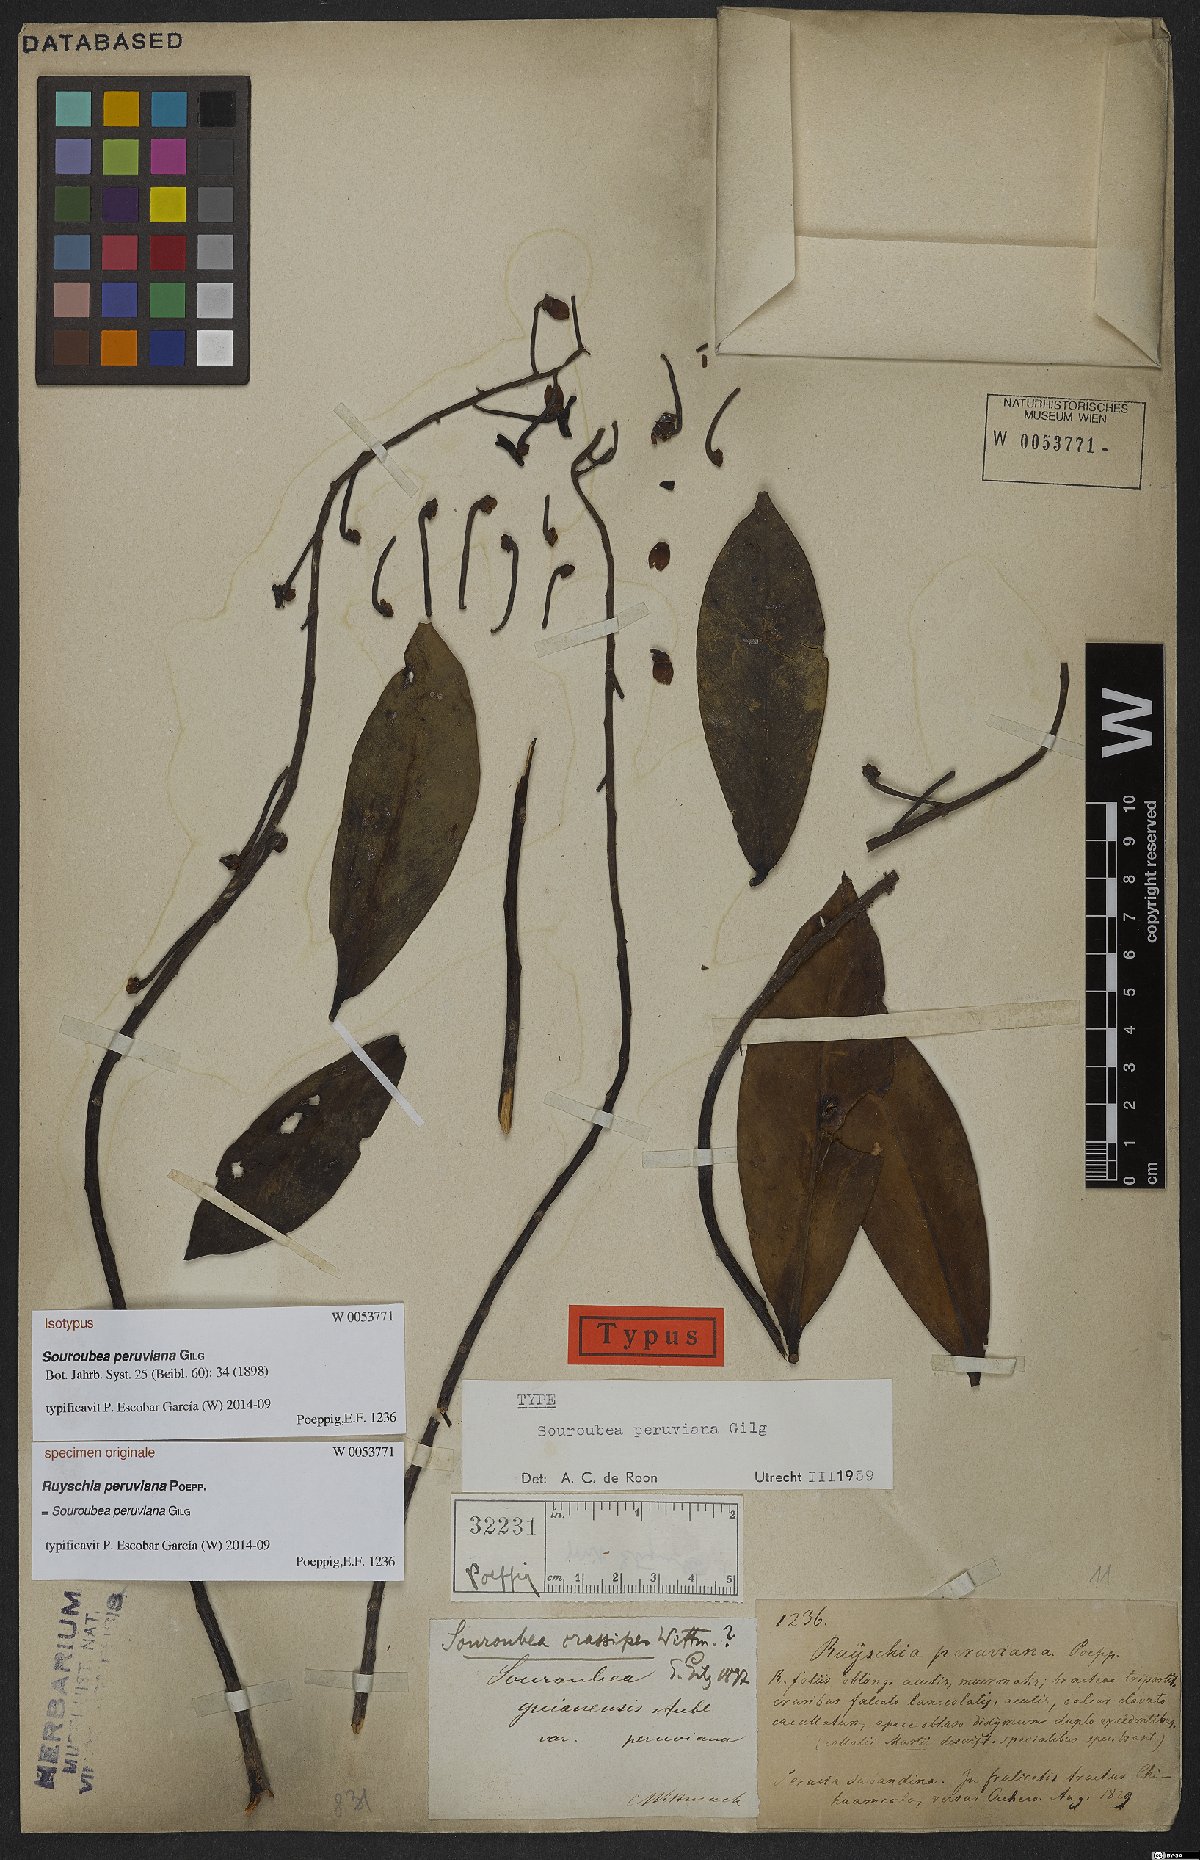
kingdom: Plantae
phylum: Tracheophyta
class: Magnoliopsida
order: Ericales
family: Marcgraviaceae
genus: Souroubea
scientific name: Souroubea peruviana
